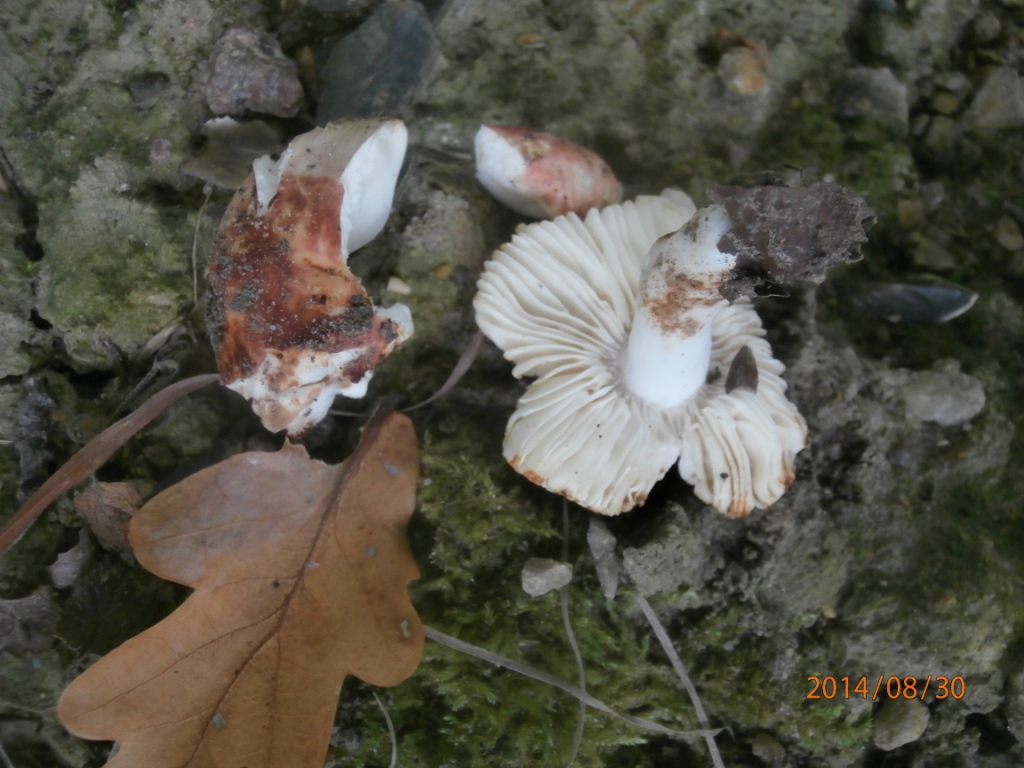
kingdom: Fungi
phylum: Basidiomycota
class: Agaricomycetes
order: Russulales
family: Russulaceae
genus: Russula
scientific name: Russula luteotacta
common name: gulplettet gift-skørhat
